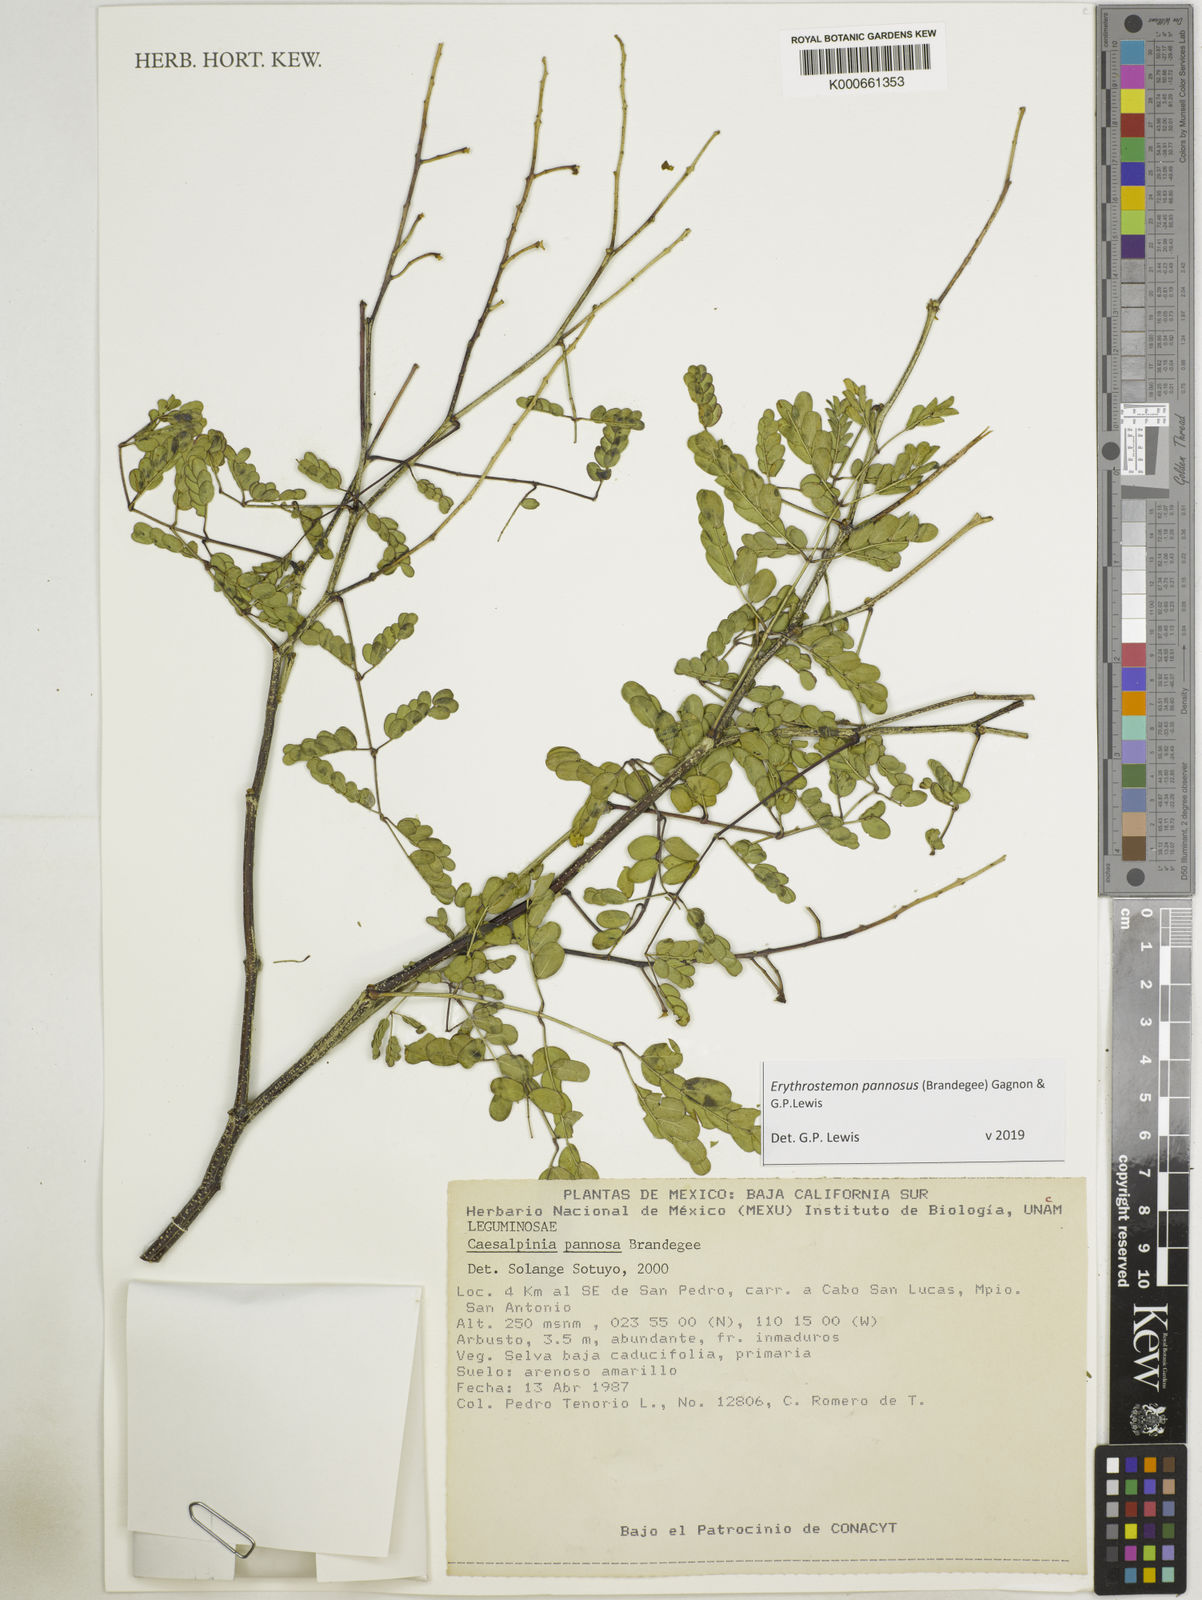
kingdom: Plantae
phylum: Tracheophyta
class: Magnoliopsida
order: Fabales
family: Fabaceae
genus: Erythrostemon
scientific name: Erythrostemon pannosus
